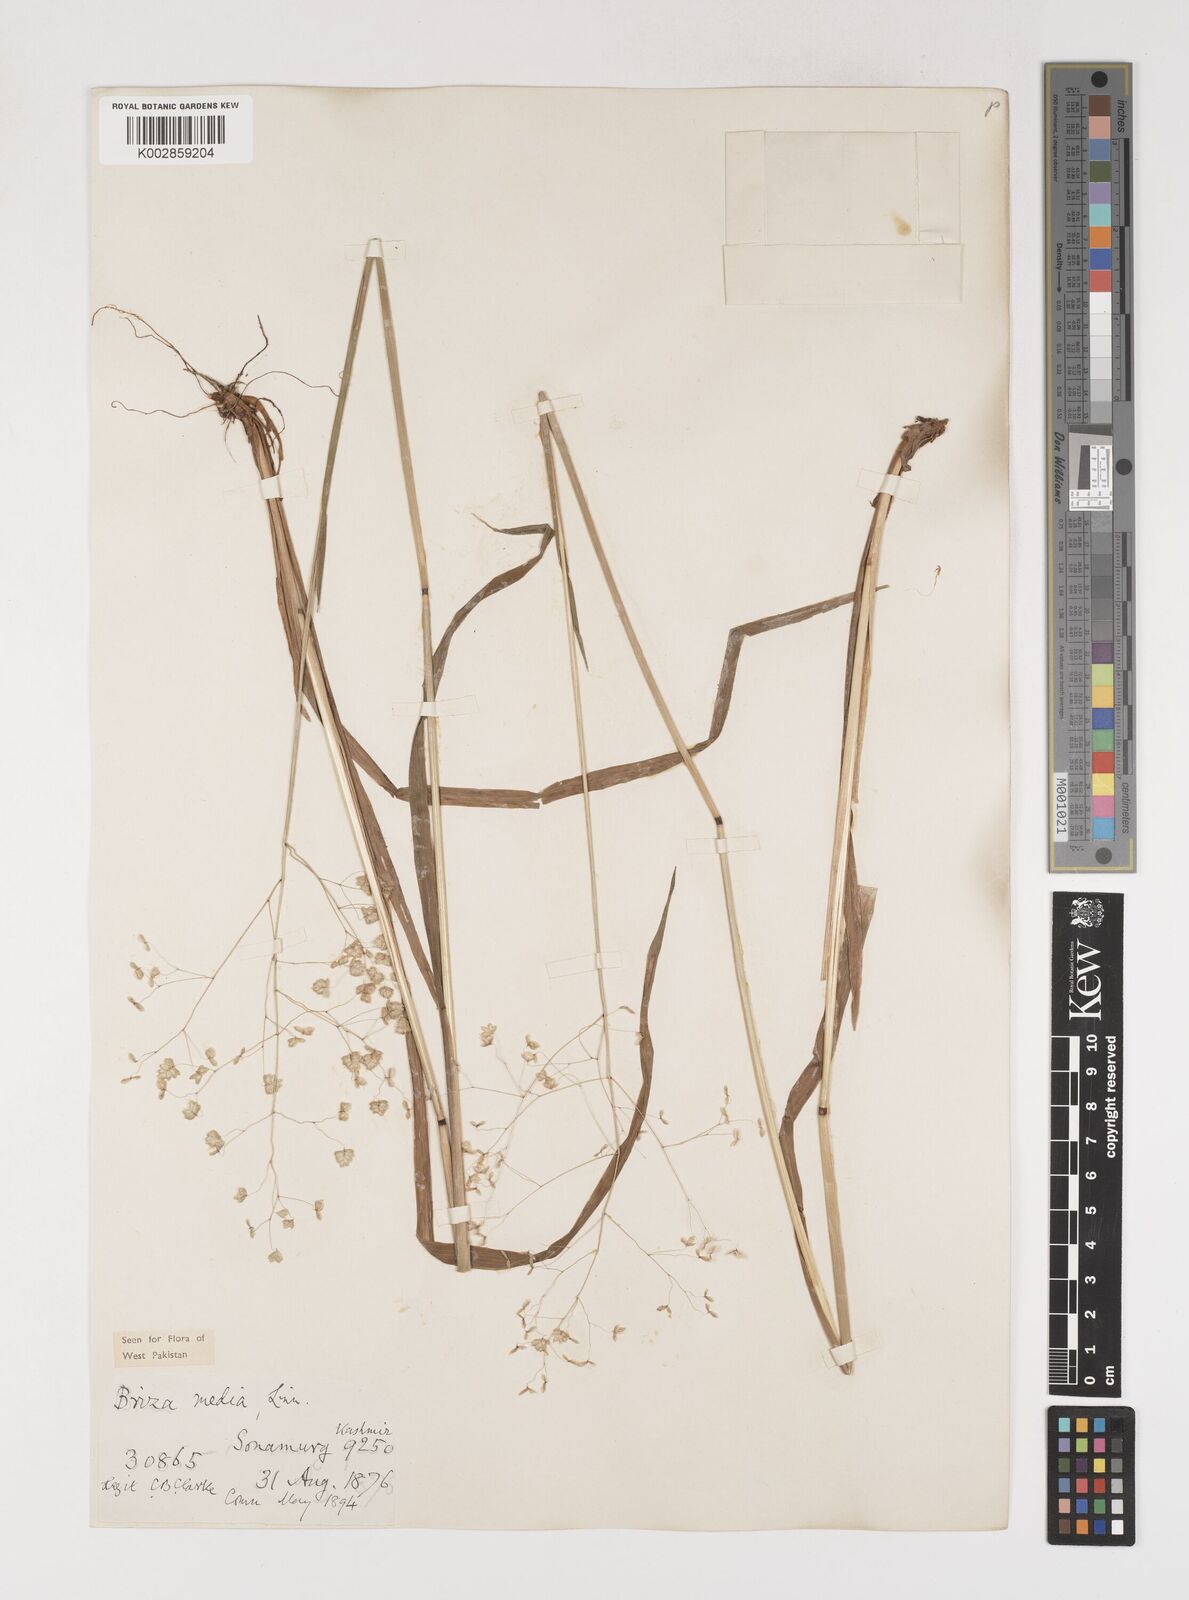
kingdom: Plantae
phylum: Tracheophyta
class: Liliopsida
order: Poales
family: Poaceae
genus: Briza
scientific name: Briza media
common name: Quaking grass
